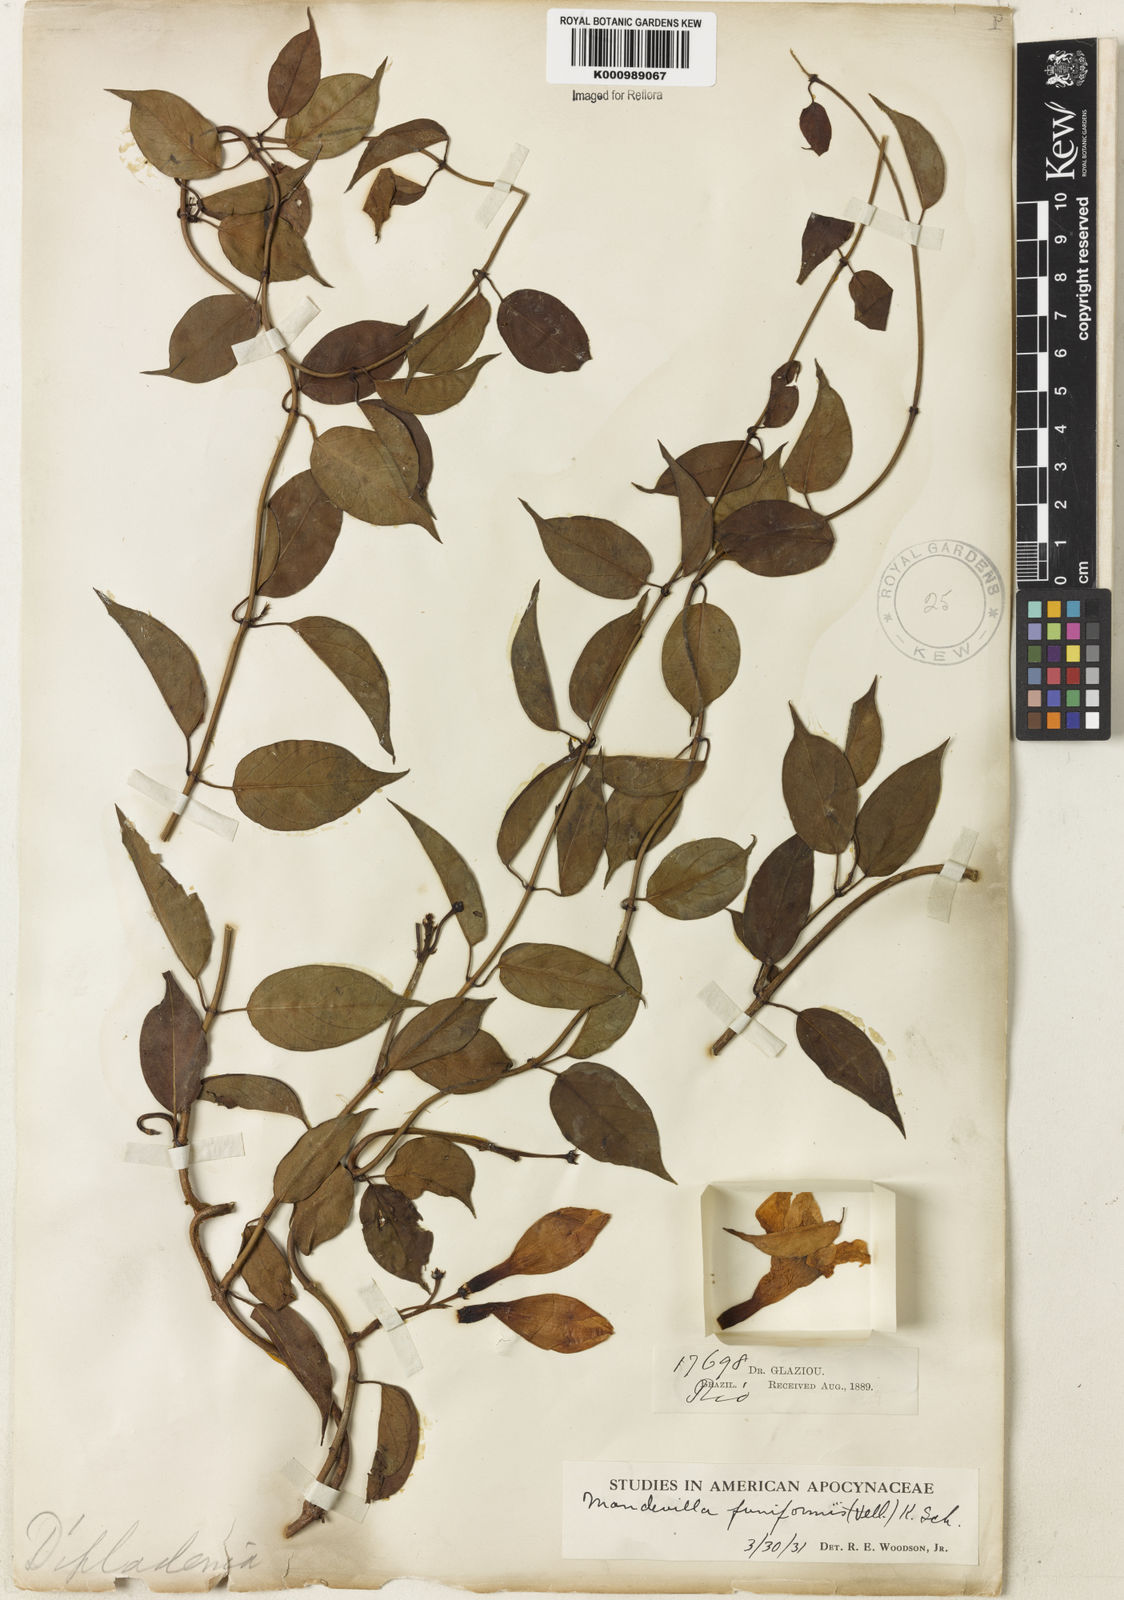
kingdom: Plantae
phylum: Tracheophyta
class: Magnoliopsida
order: Gentianales
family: Apocynaceae
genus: Mandevilla
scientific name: Mandevilla funiformis
